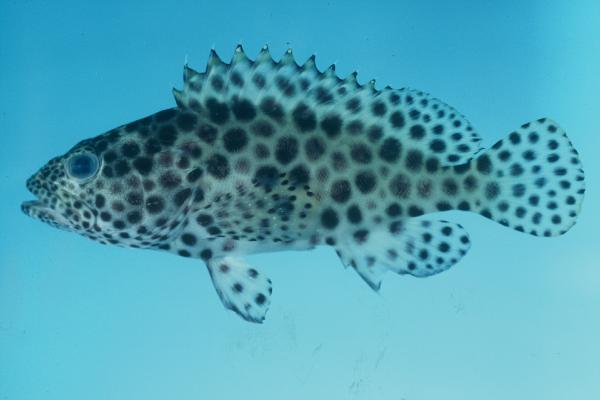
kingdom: Animalia
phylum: Chordata
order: Perciformes
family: Serranidae
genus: Epinephelus
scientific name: Epinephelus merra
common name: Honeycomb grouper
